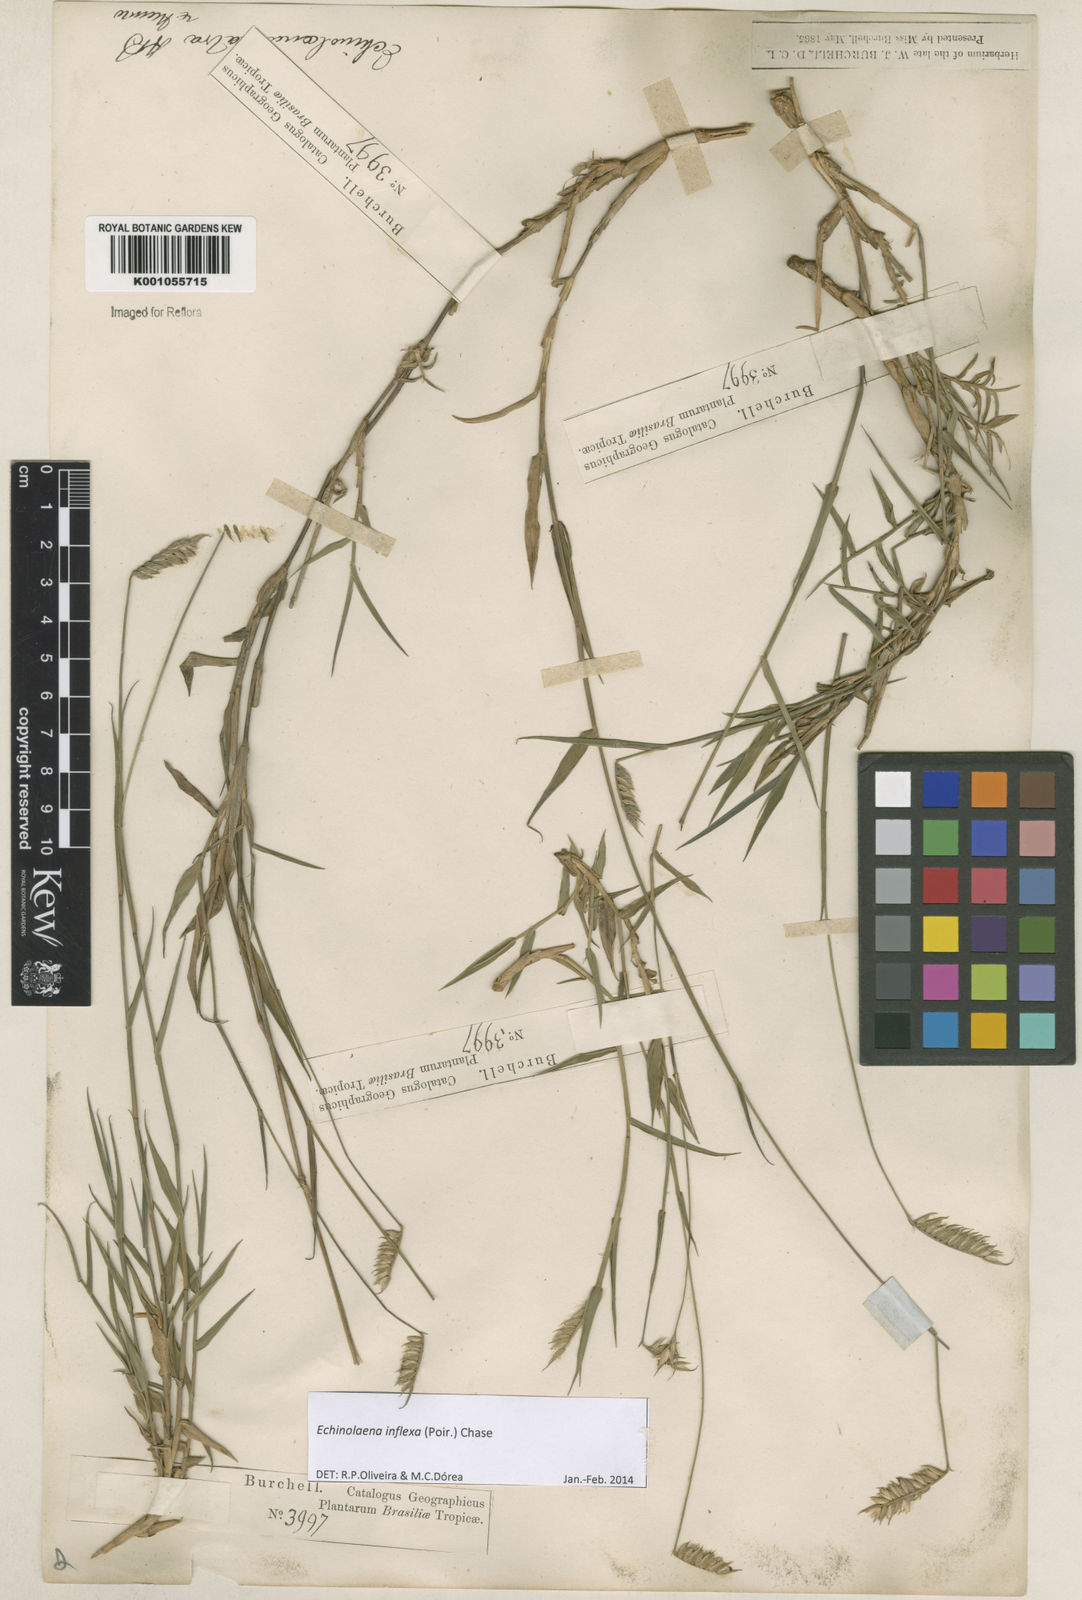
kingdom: Plantae
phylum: Tracheophyta
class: Liliopsida
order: Poales
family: Poaceae
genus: Echinolaena
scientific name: Echinolaena inflexa
